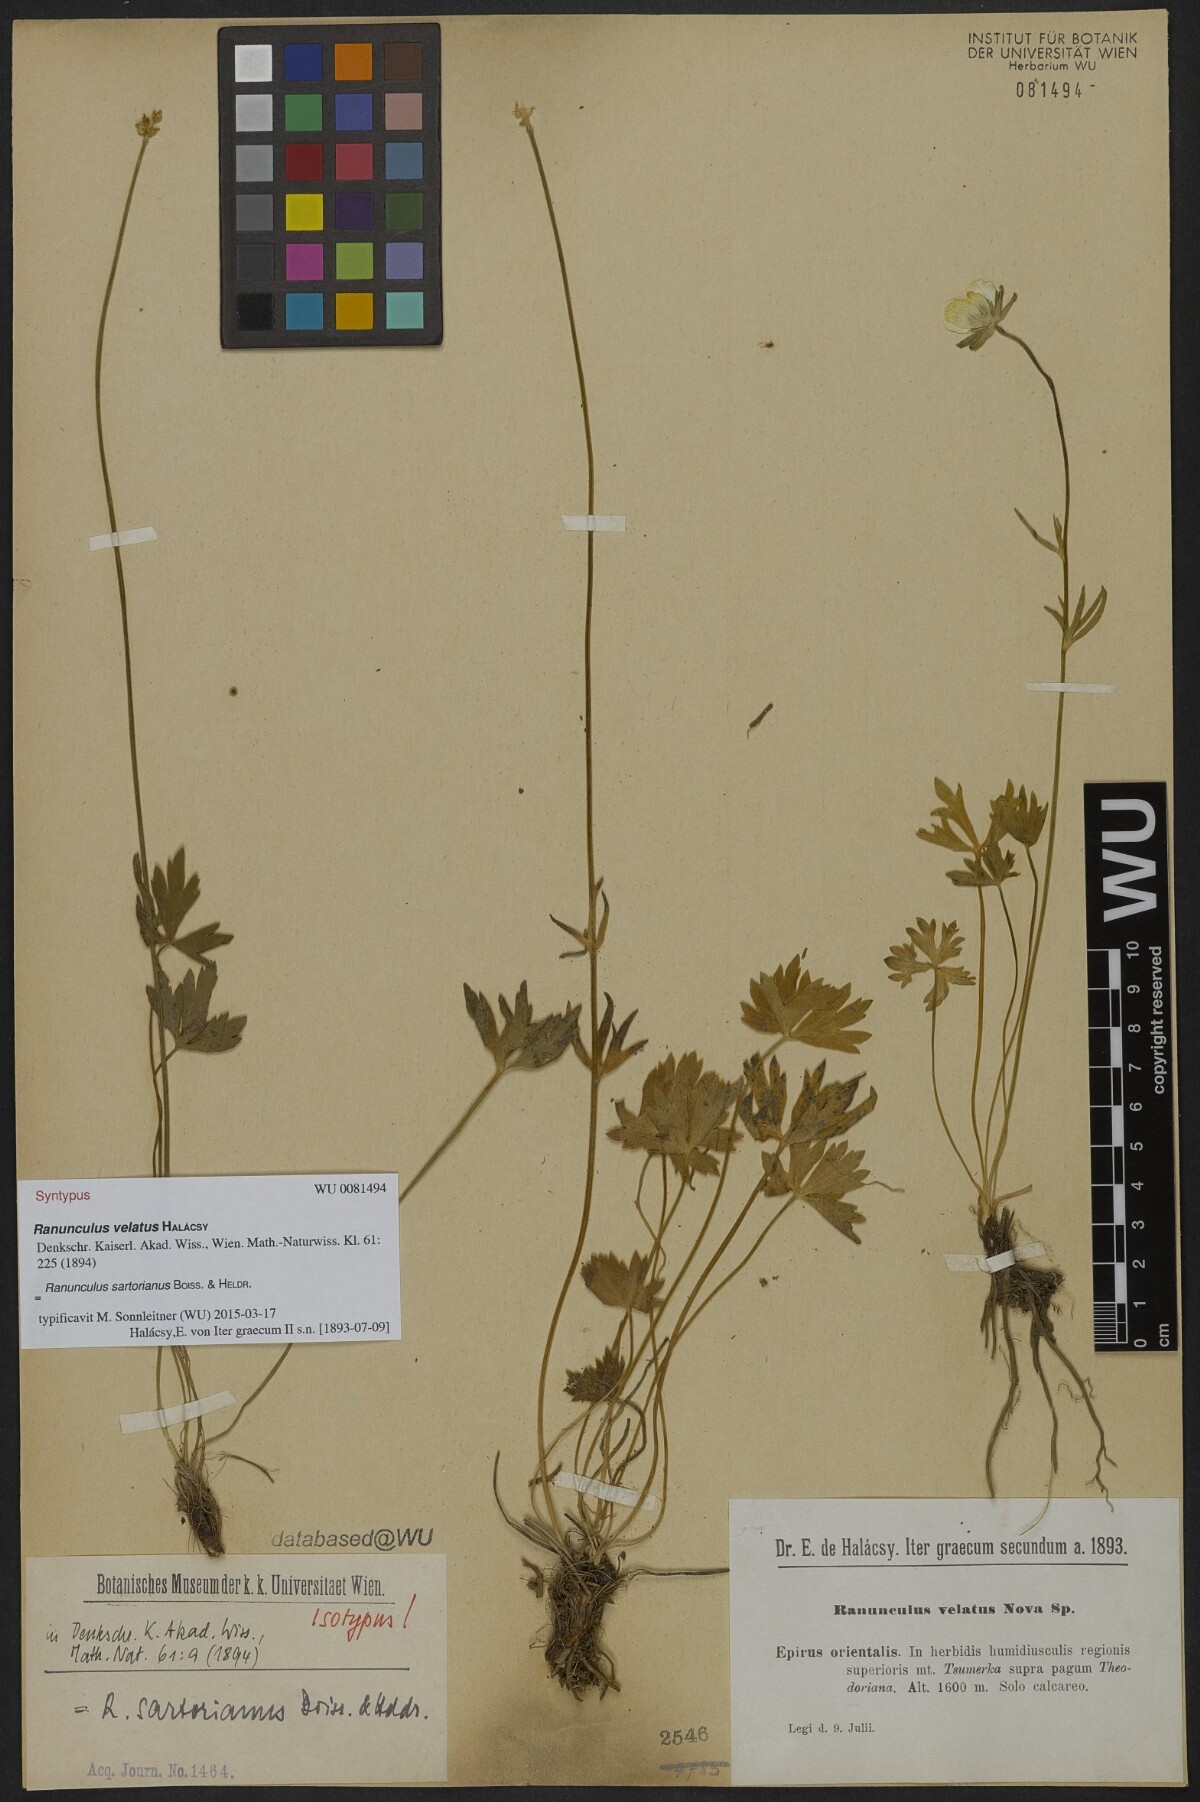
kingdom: Plantae
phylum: Tracheophyta
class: Magnoliopsida
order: Ranunculales
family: Ranunculaceae
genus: Ranunculus
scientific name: Ranunculus sartorianus
